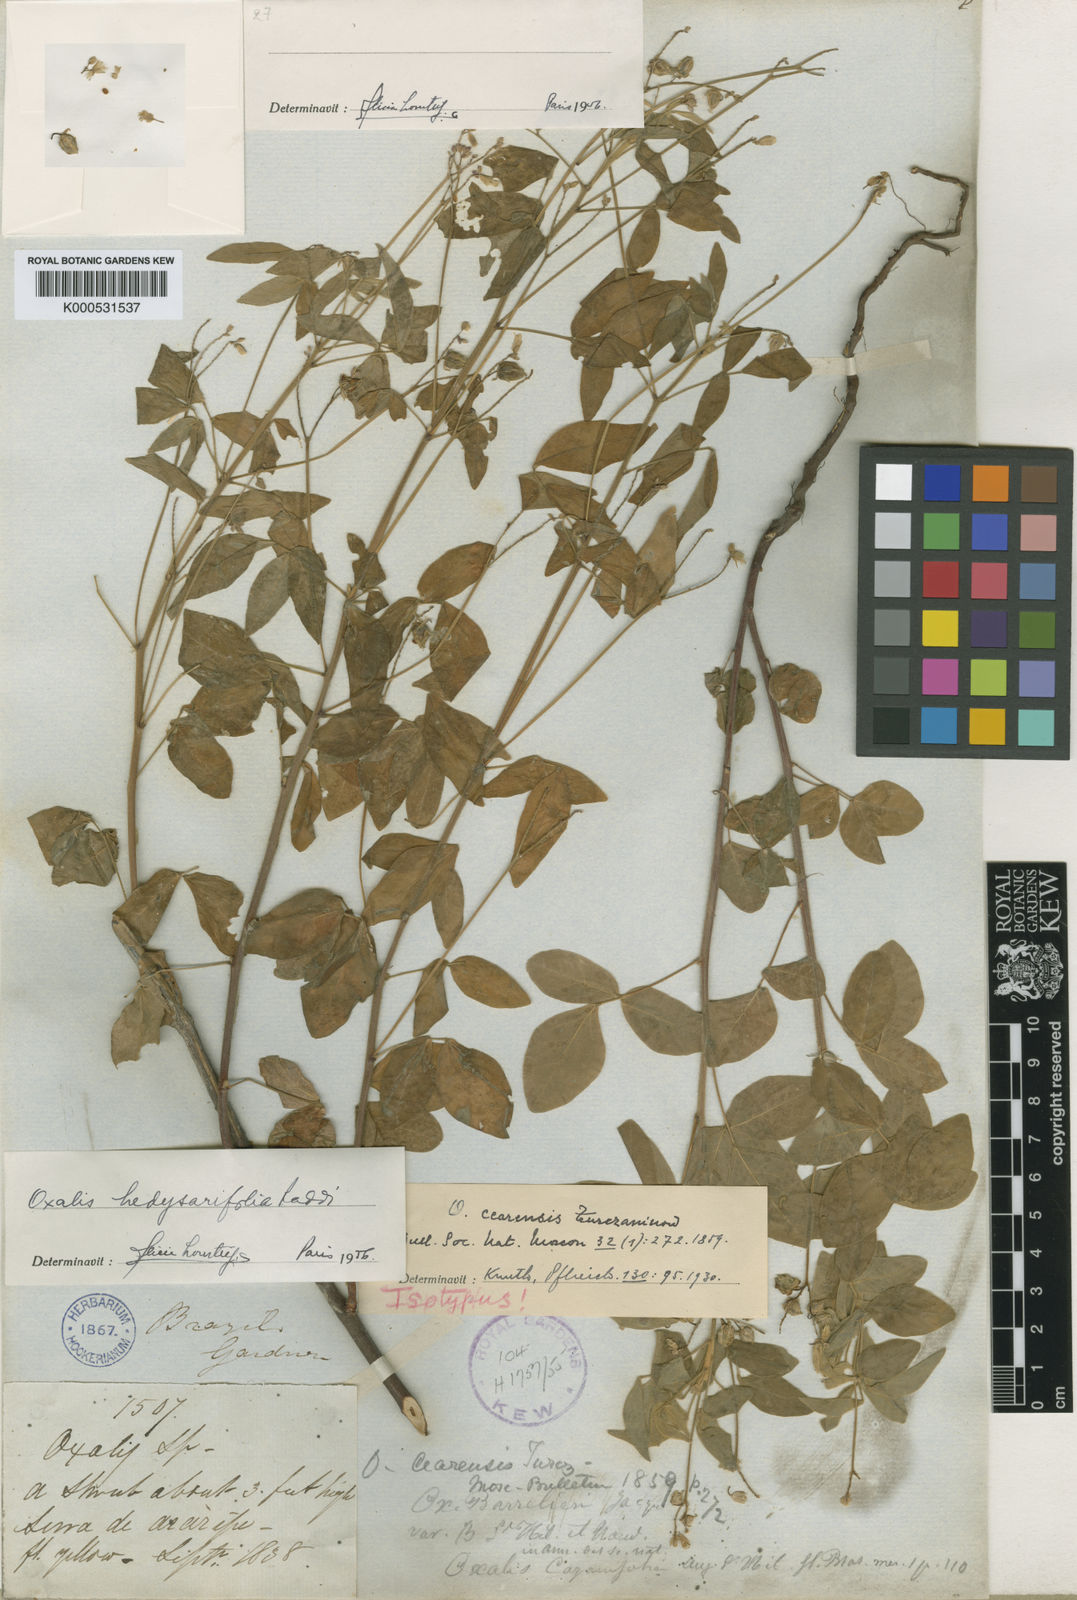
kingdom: Plantae
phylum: Tracheophyta
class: Magnoliopsida
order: Oxalidales
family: Oxalidaceae
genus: Oxalis
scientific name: Oxalis frutescens
